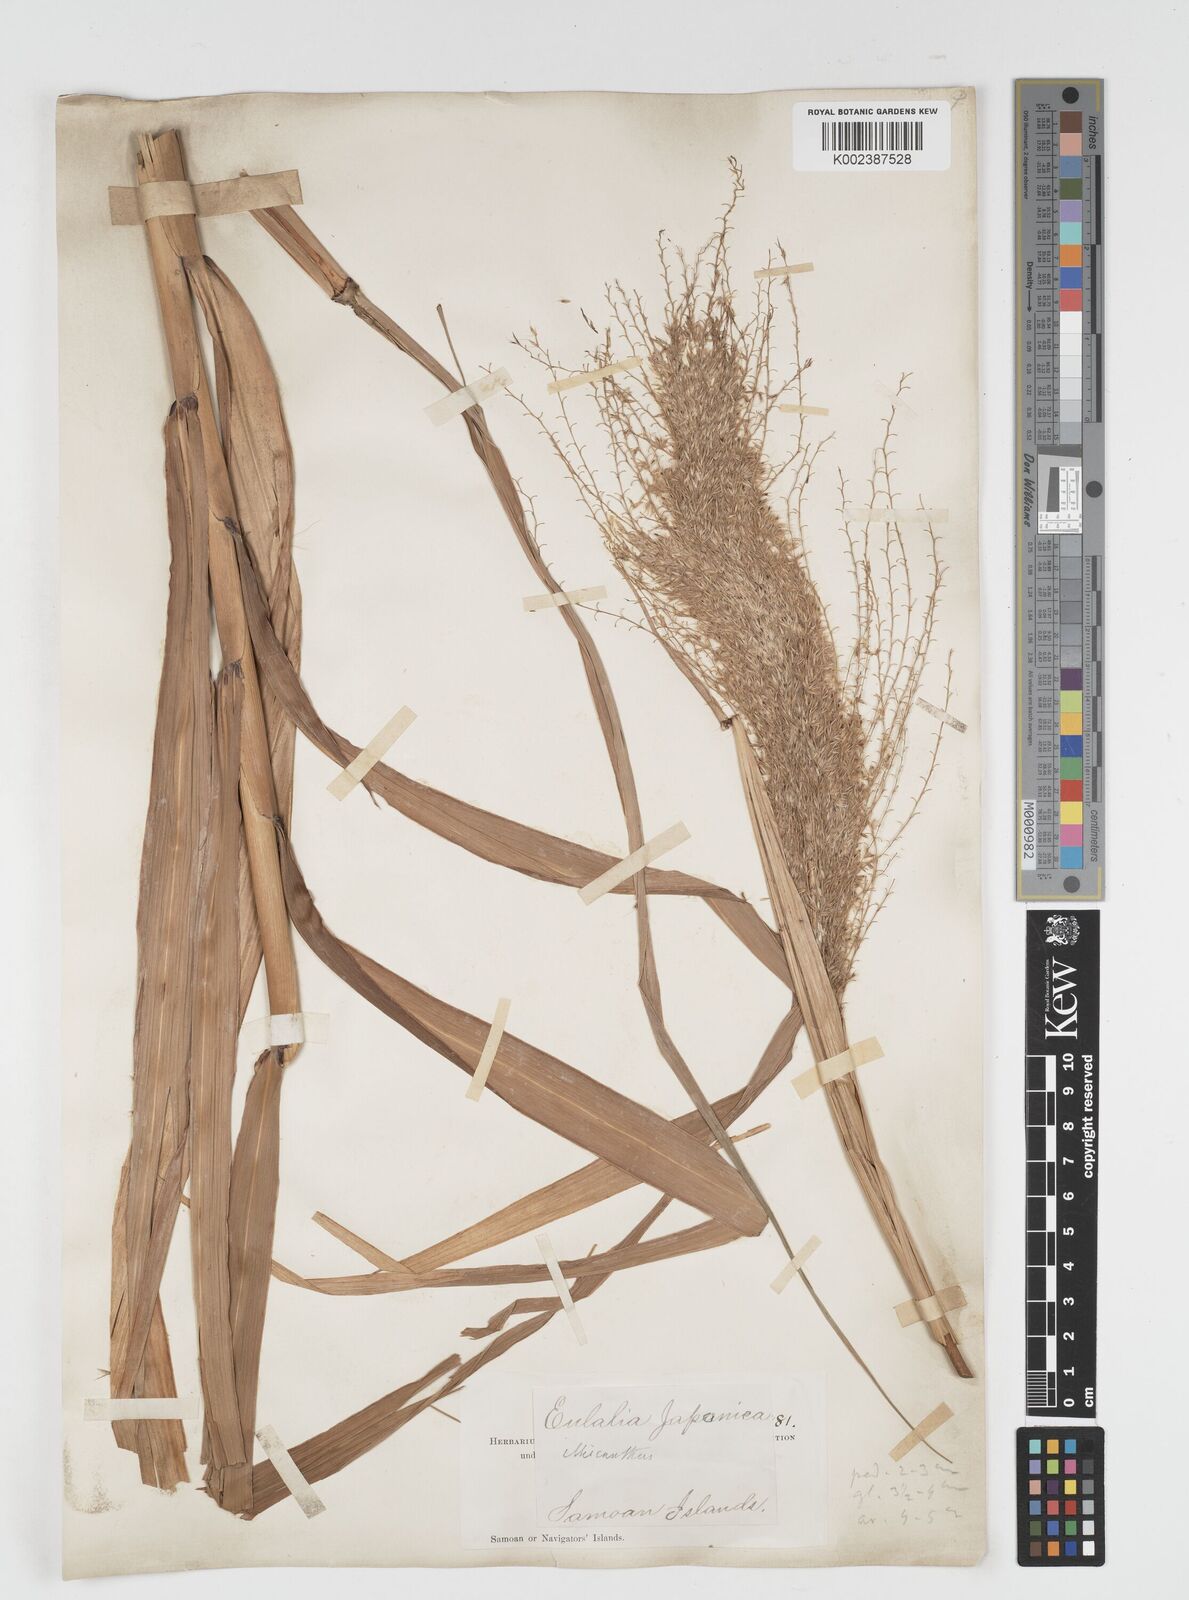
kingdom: Plantae
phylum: Tracheophyta
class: Liliopsida
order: Poales
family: Poaceae
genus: Miscanthus
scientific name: Miscanthus floridulus
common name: Pacific island silvergrass
